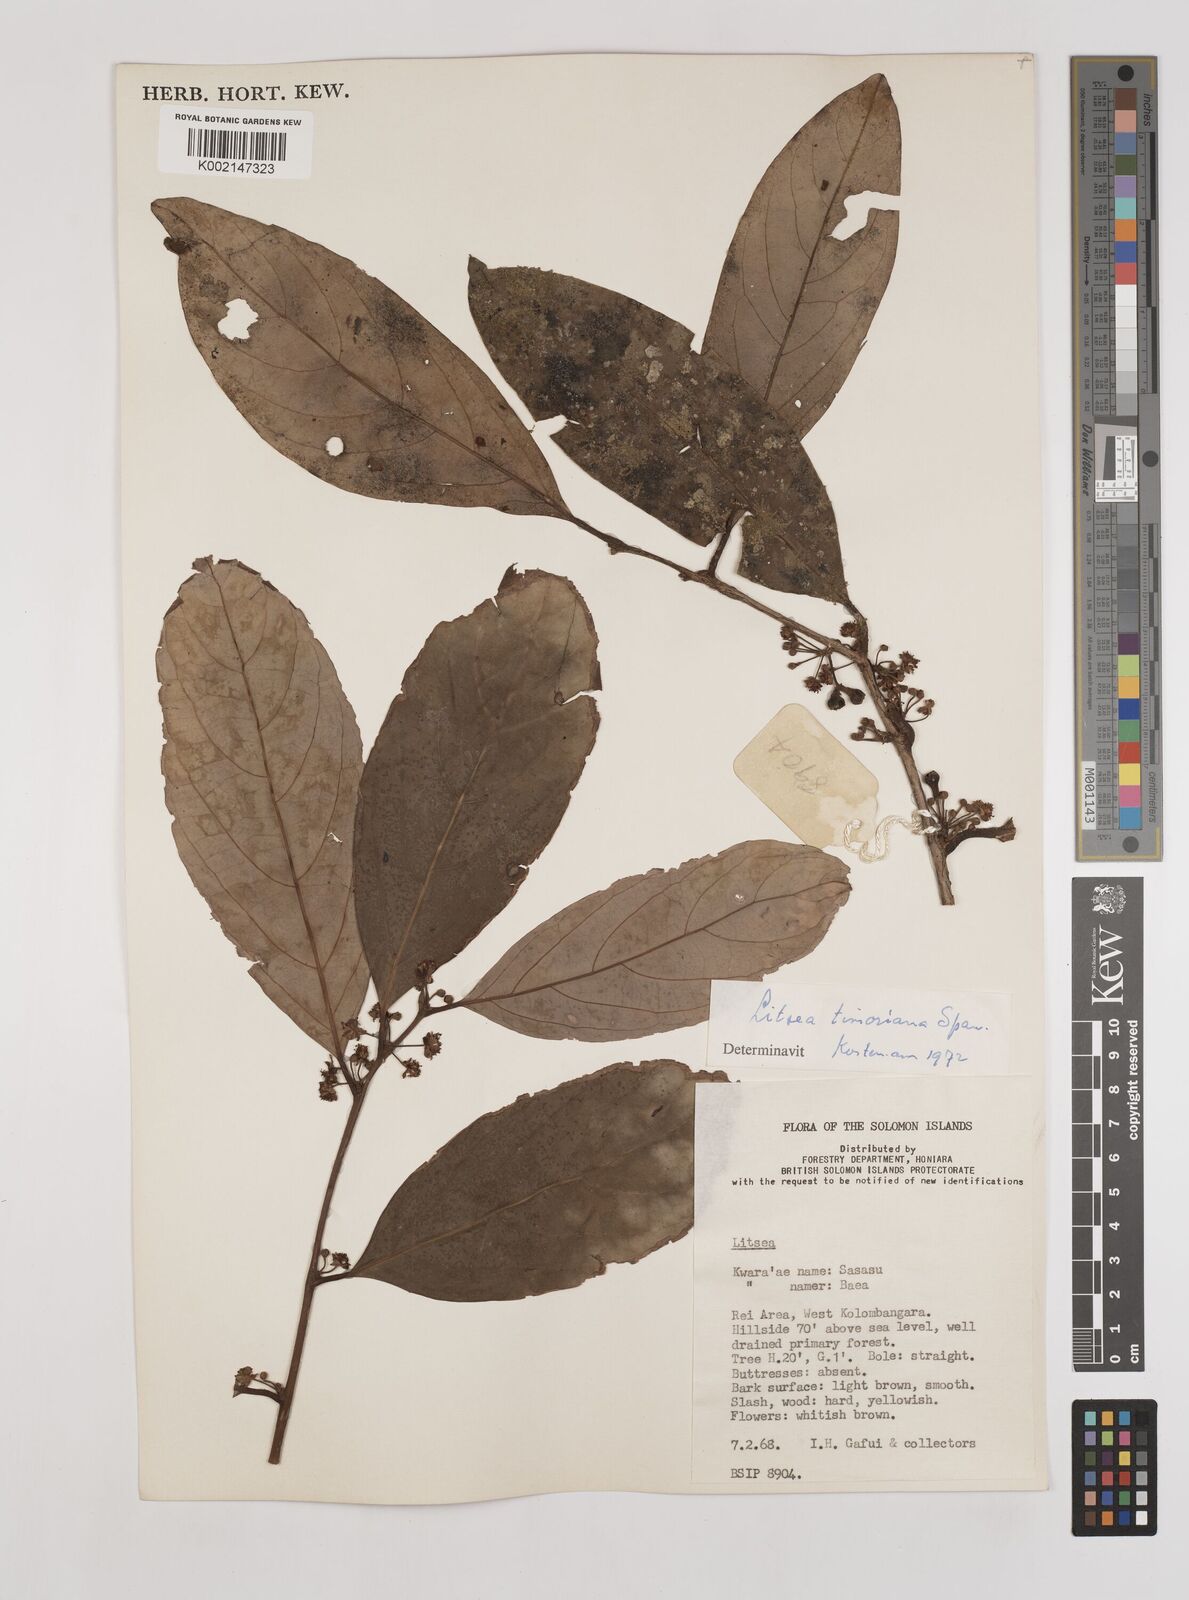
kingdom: Plantae
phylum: Tracheophyta
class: Magnoliopsida
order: Laurales
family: Lauraceae
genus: Litsea
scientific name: Litsea timoriana
